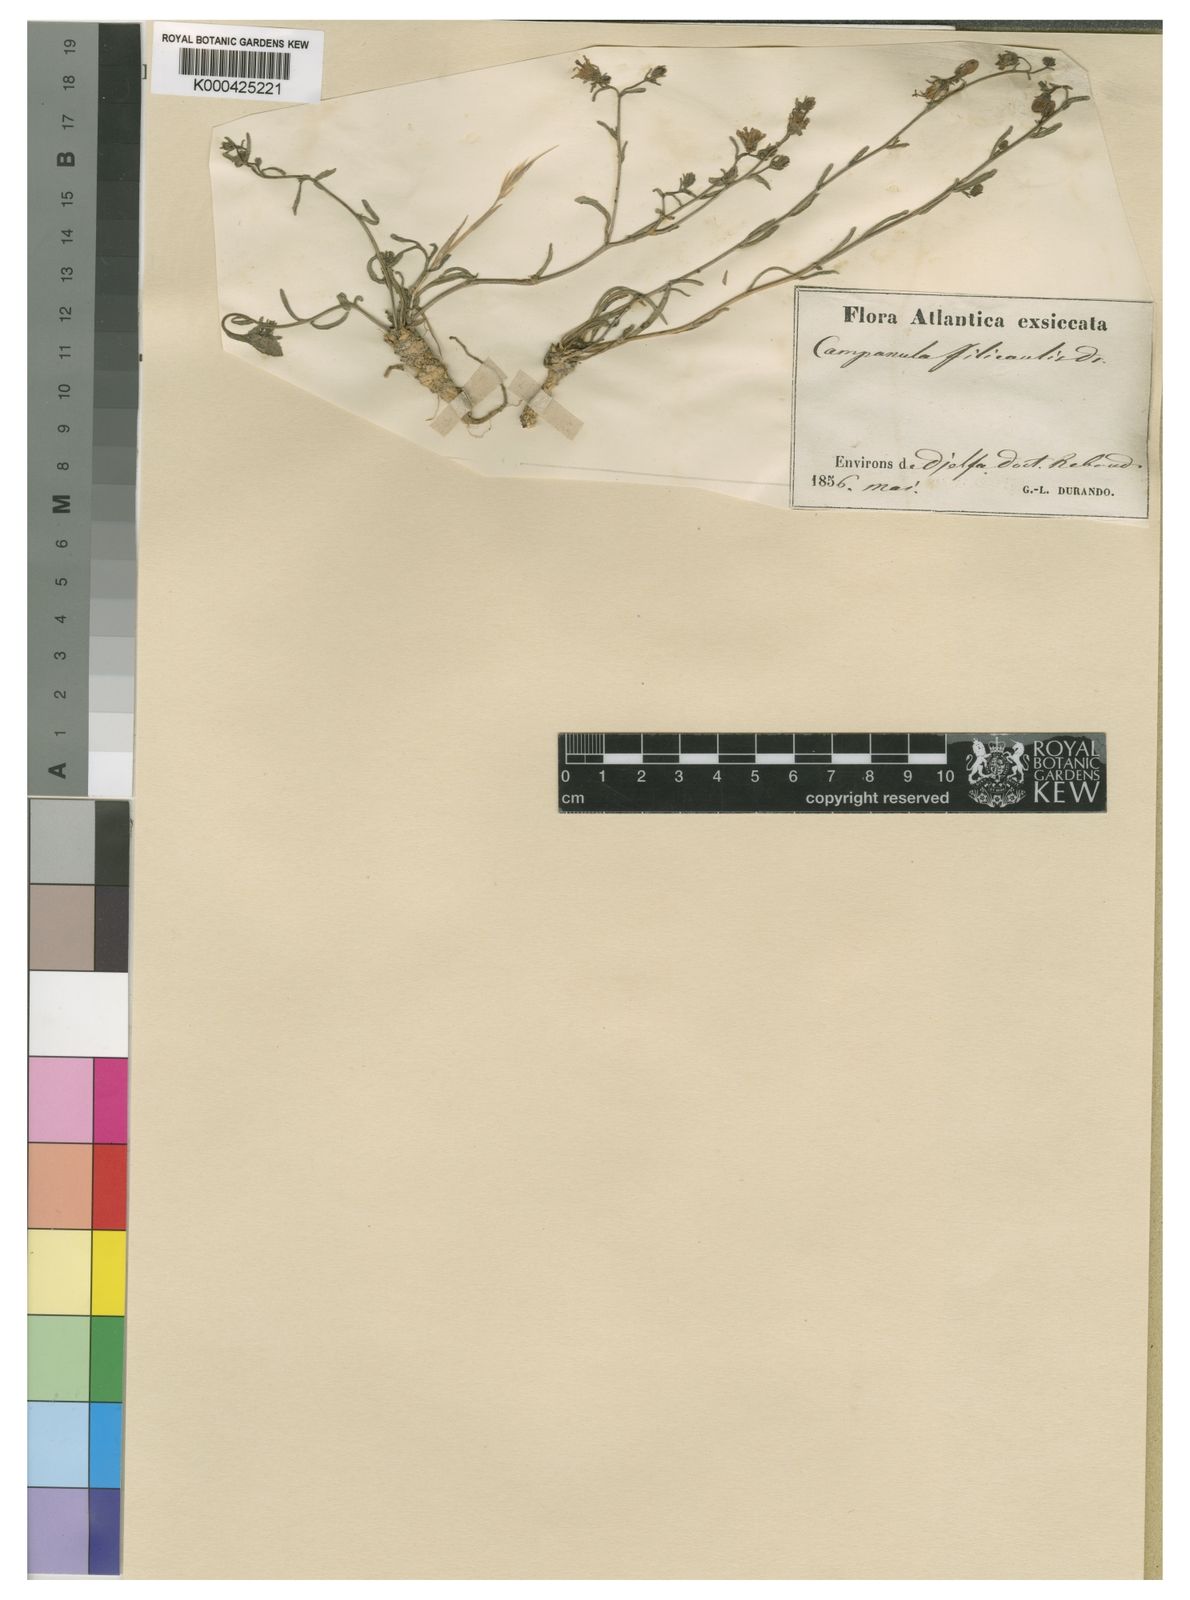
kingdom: Plantae
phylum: Tracheophyta
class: Magnoliopsida
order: Asterales
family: Campanulaceae
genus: Campanula
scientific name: Campanula rotundifolia
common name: Harebell
